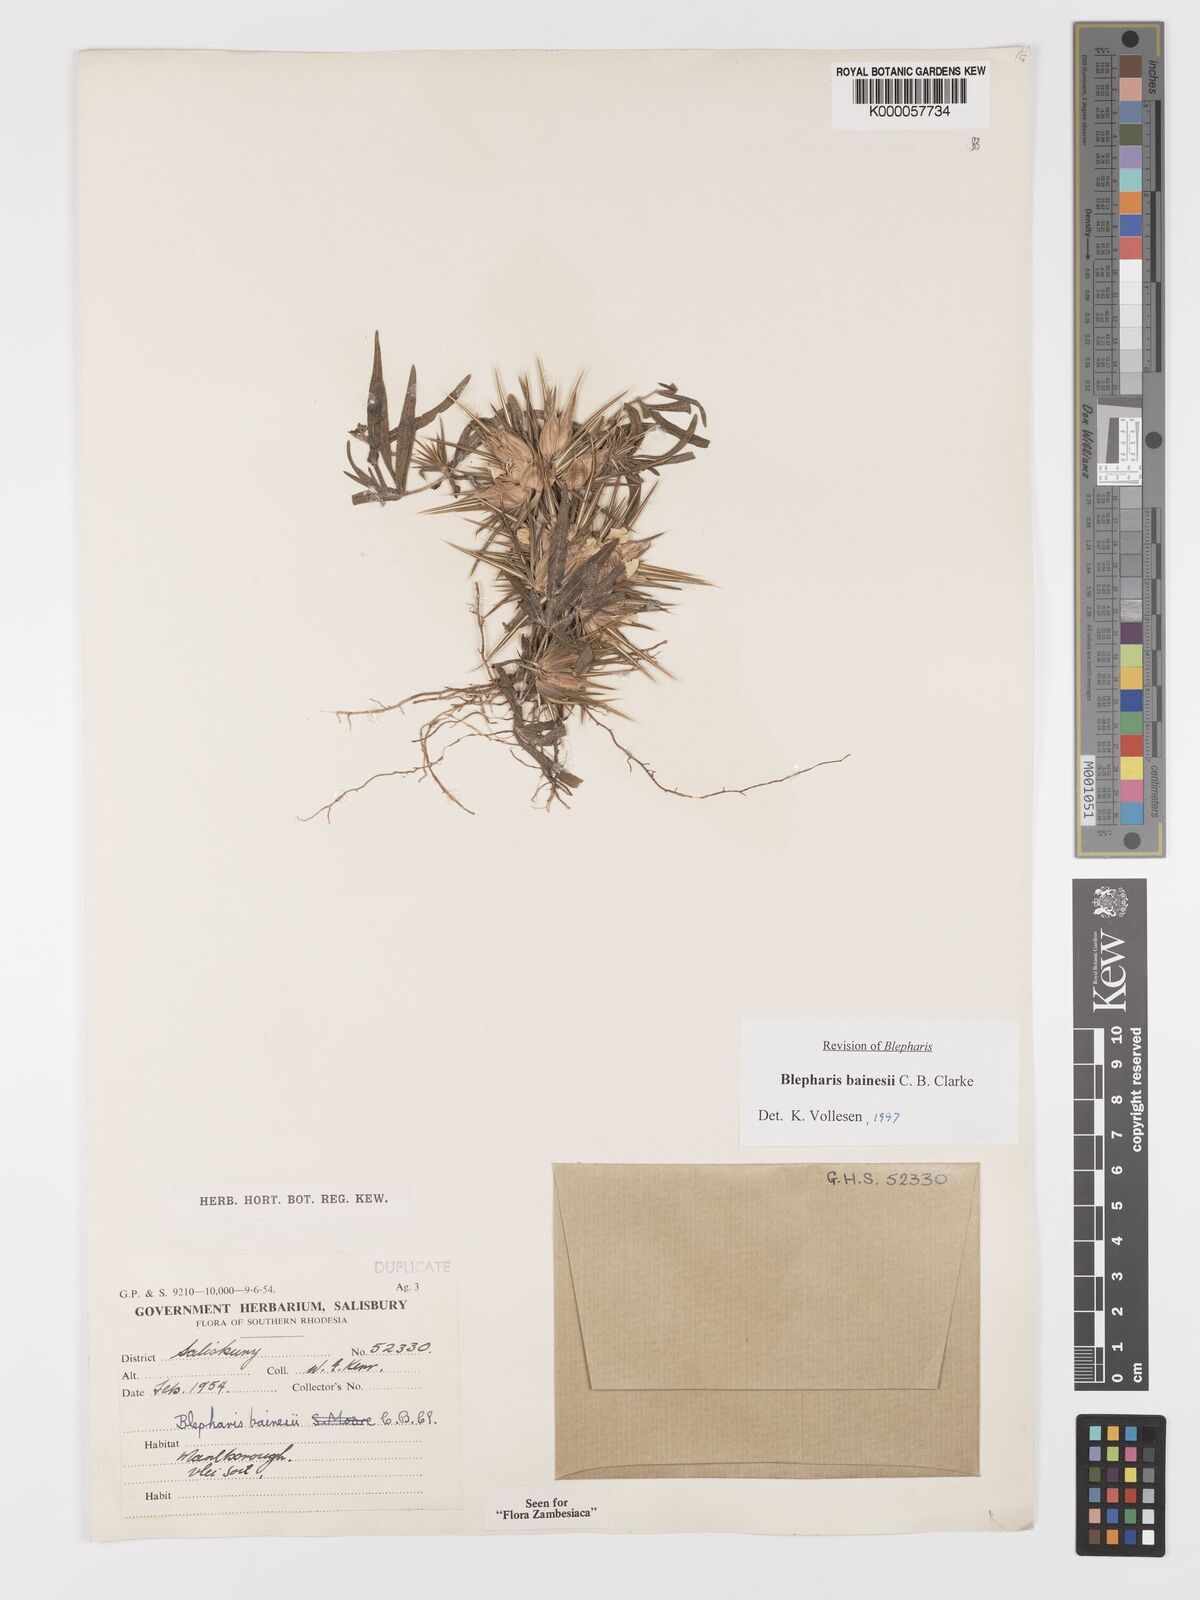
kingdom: Plantae
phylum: Tracheophyta
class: Magnoliopsida
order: Lamiales
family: Acanthaceae
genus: Blepharis
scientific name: Blepharis bainesii
